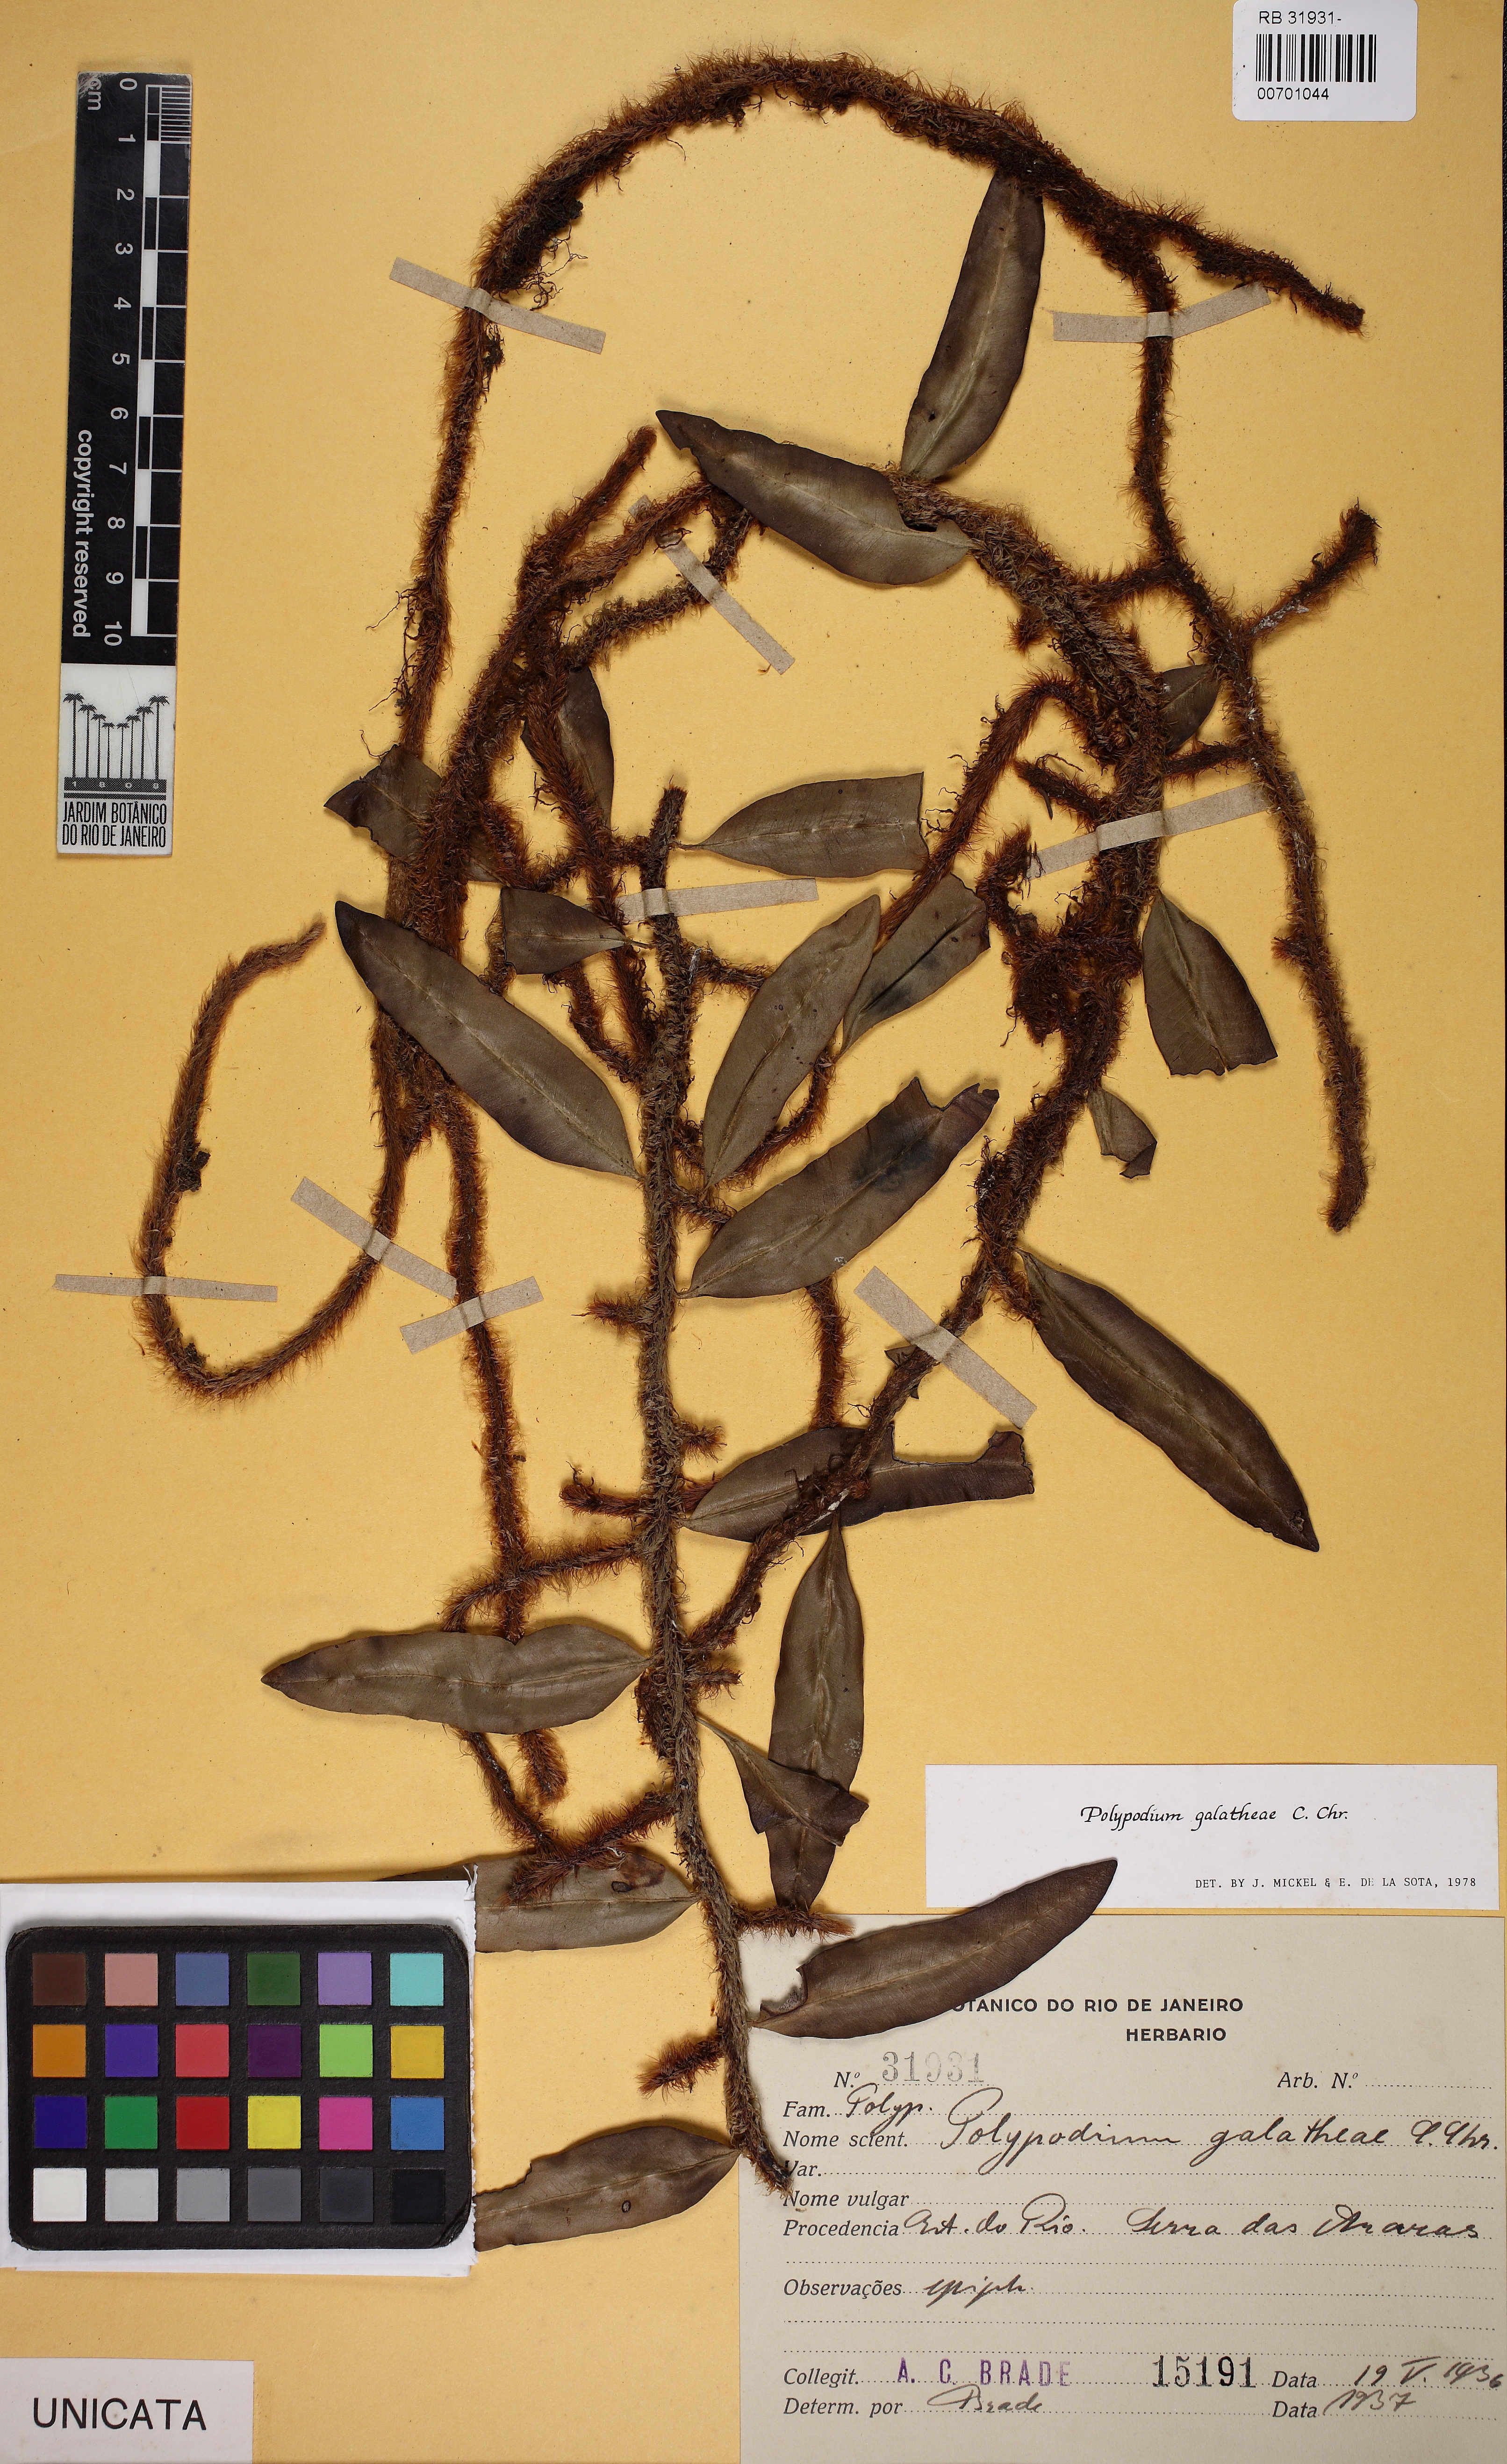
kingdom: Plantae
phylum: Tracheophyta
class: Polypodiopsida
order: Polypodiales
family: Polypodiaceae
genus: Microgramma
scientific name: Microgramma crispata
